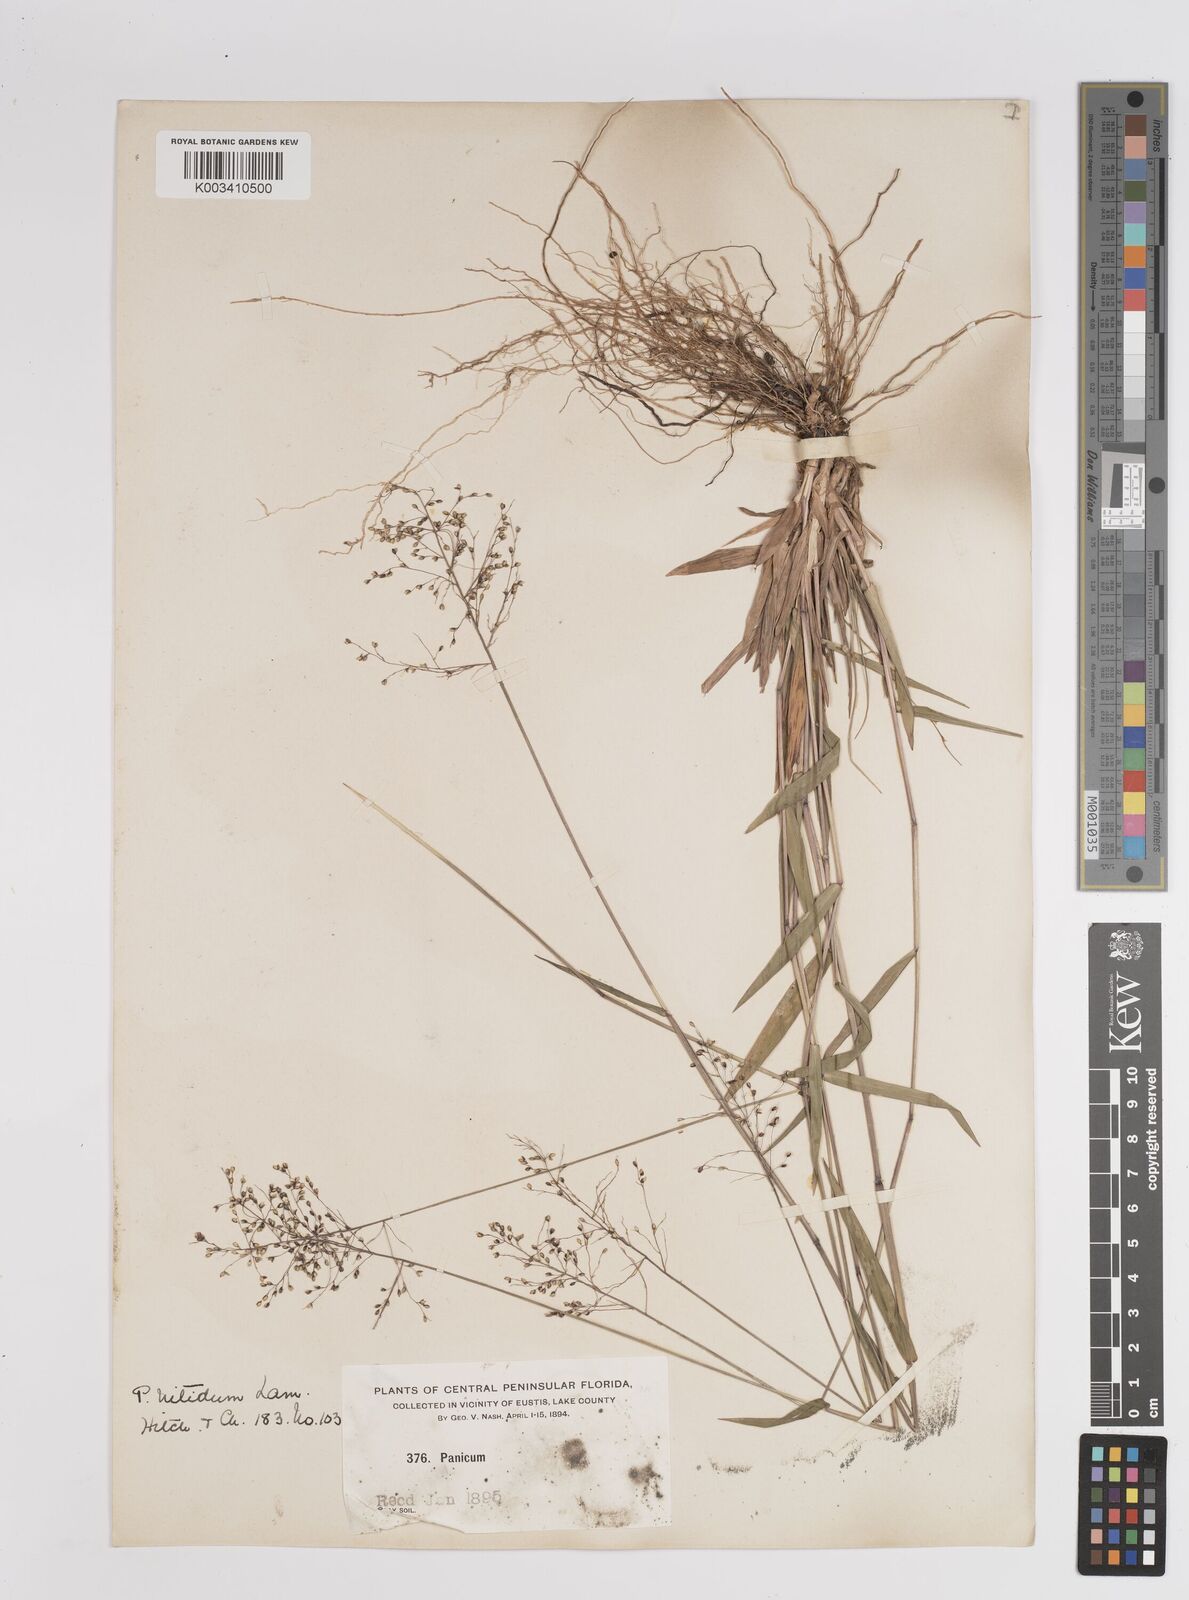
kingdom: Plantae
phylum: Tracheophyta
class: Liliopsida
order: Poales
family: Poaceae
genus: Dichanthelium
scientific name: Dichanthelium polyanthes
